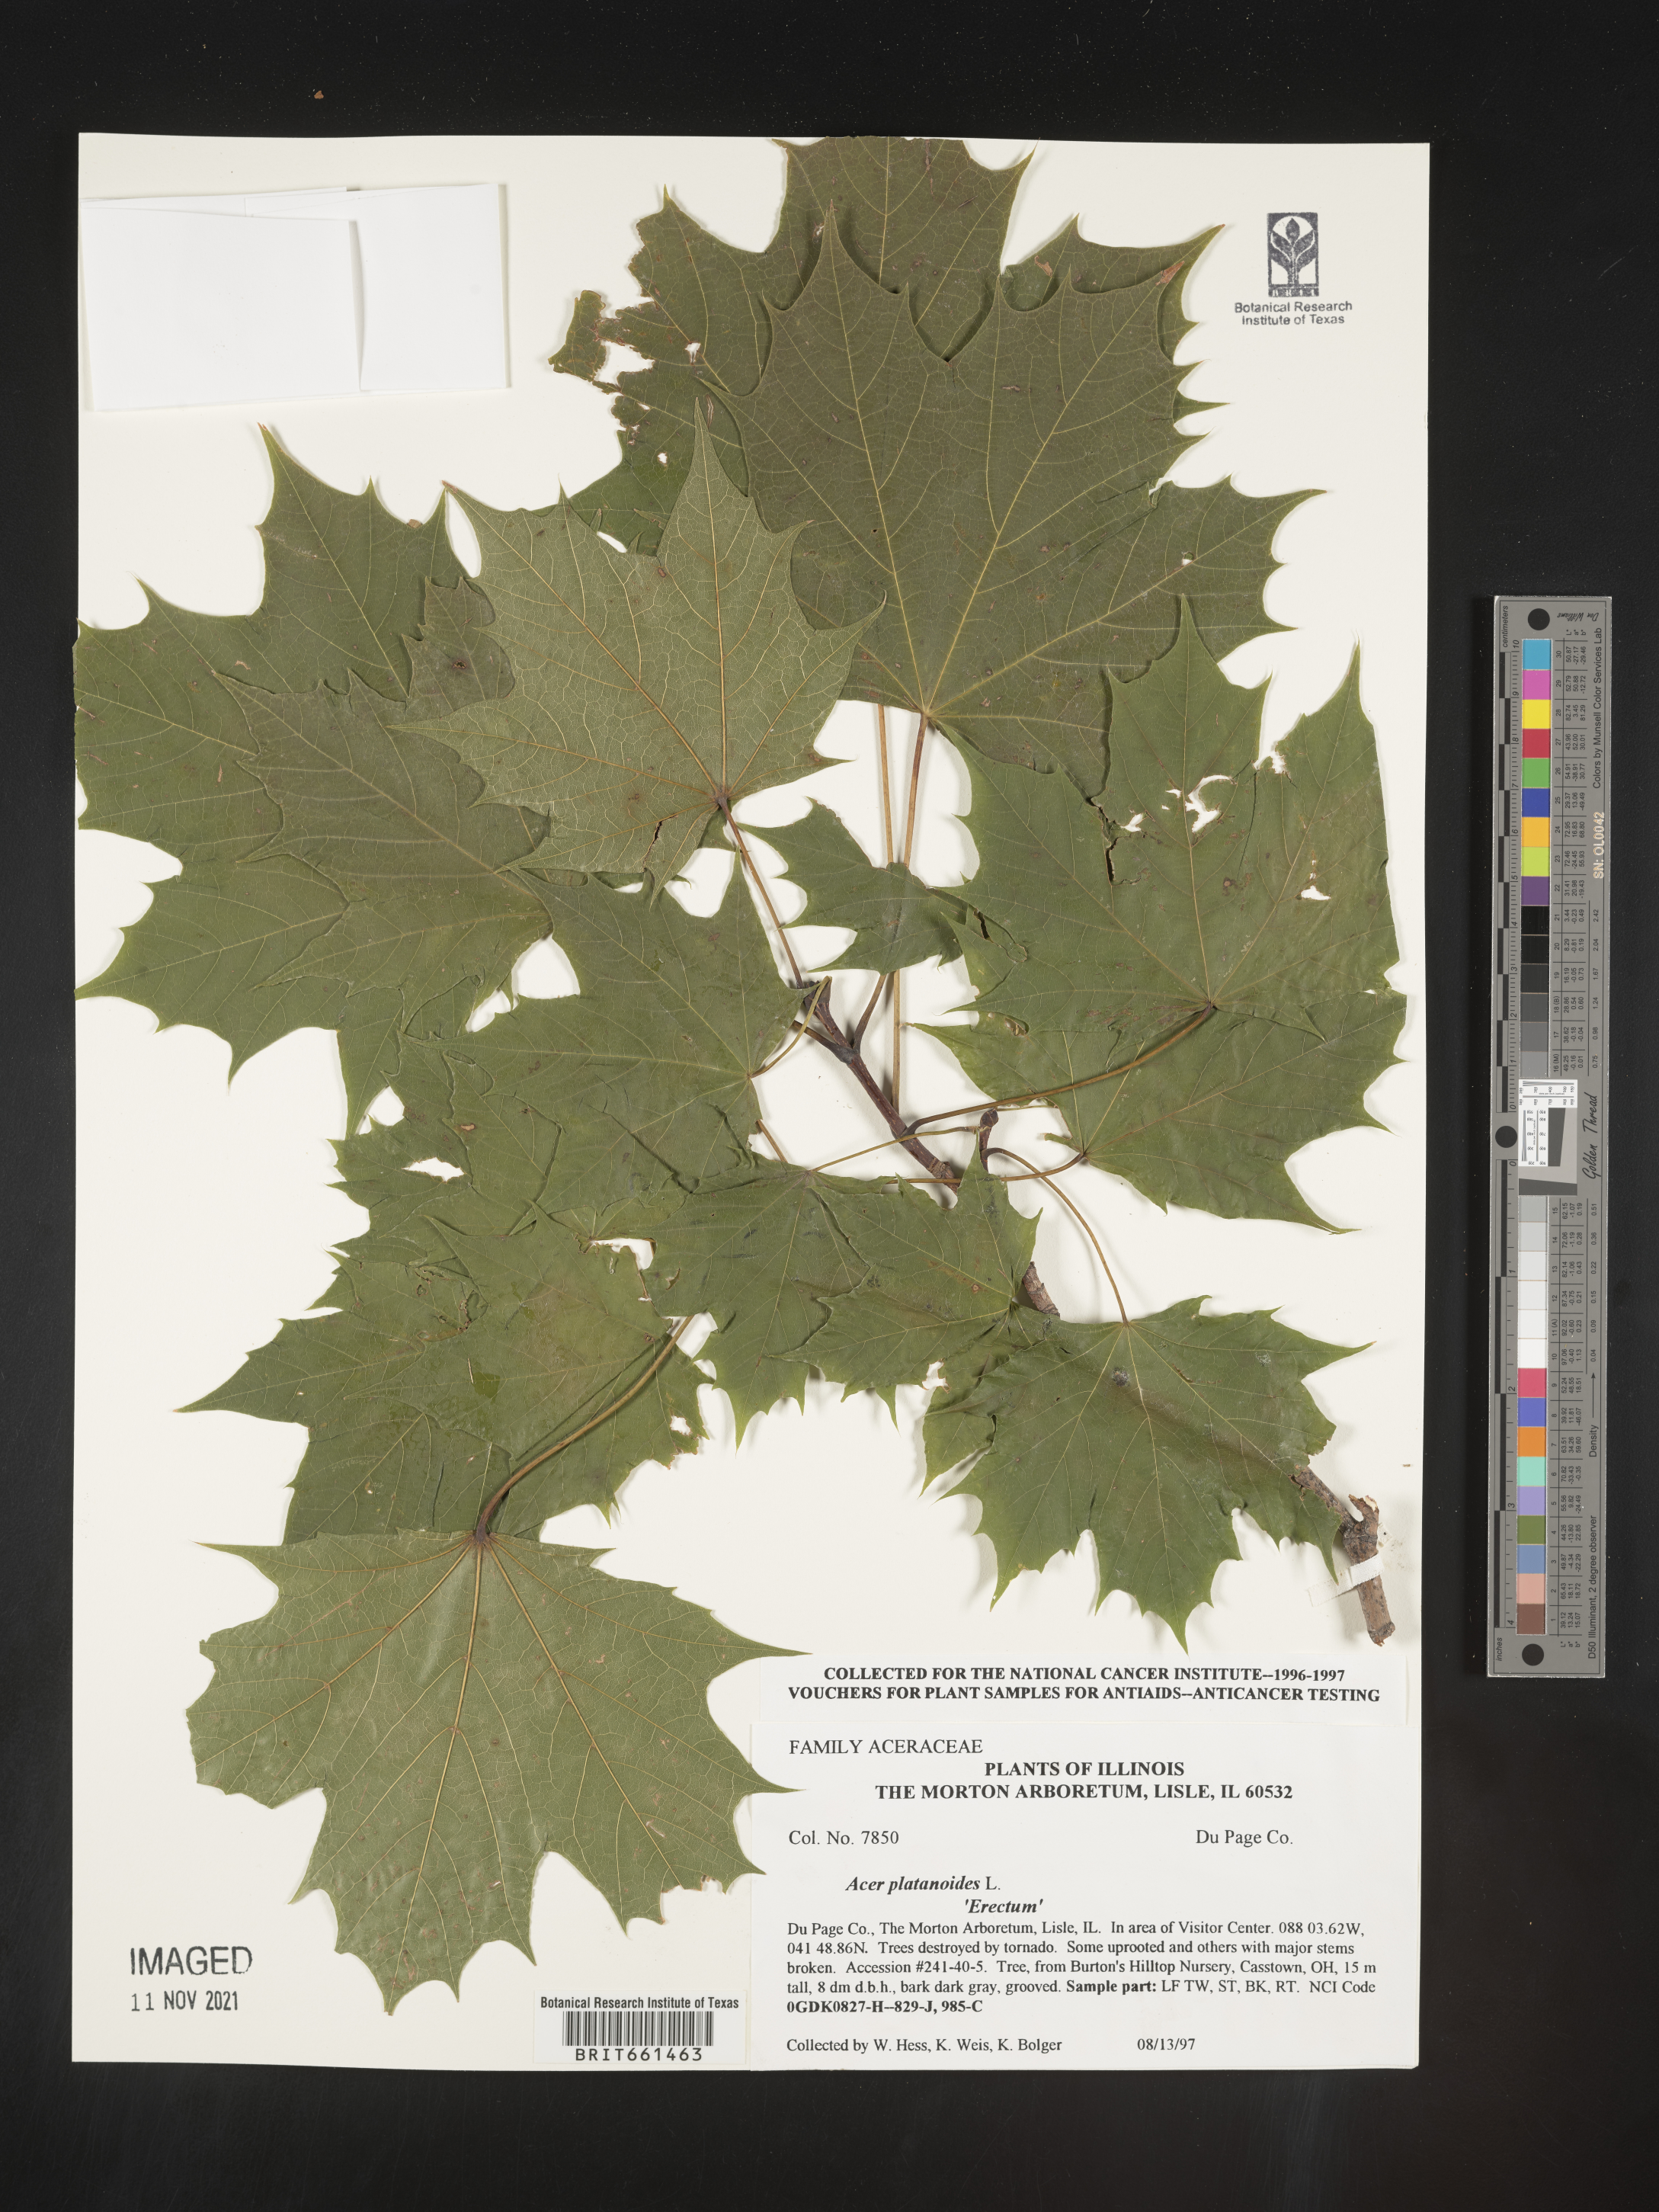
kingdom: Plantae
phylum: Tracheophyta
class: Magnoliopsida
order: Sapindales
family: Sapindaceae
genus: Acer
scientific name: Acer
